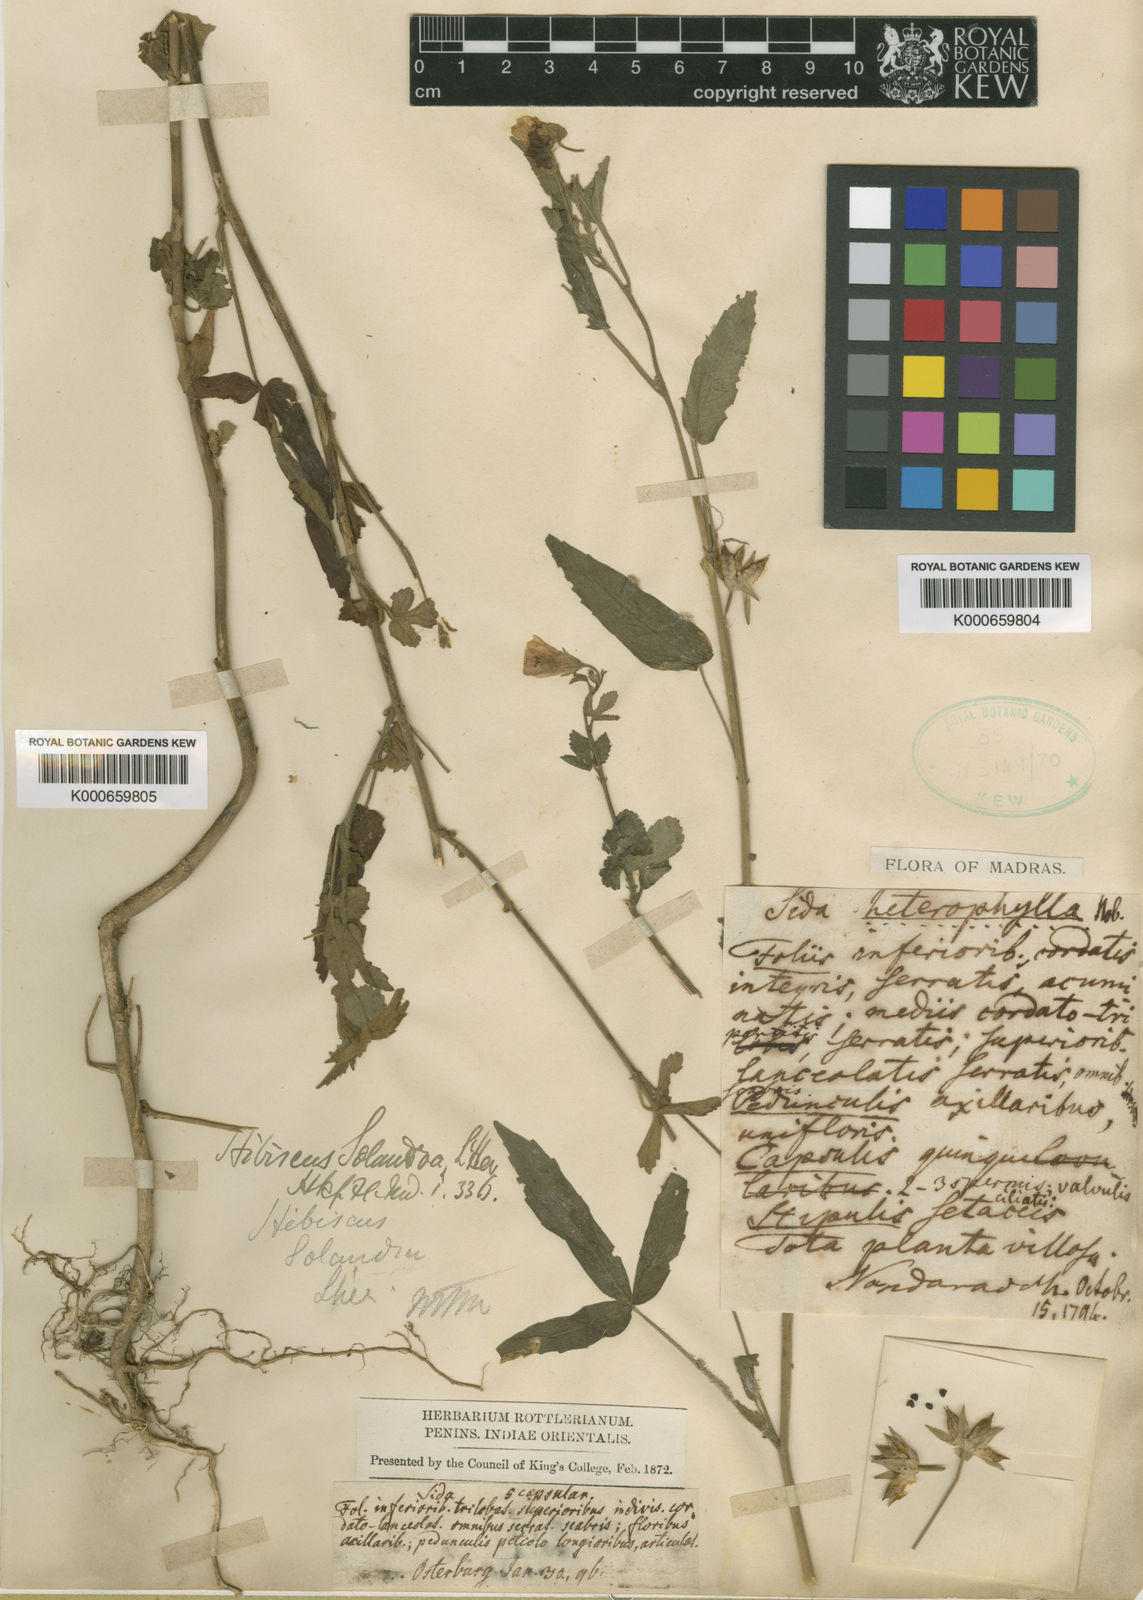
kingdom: Plantae
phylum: Tracheophyta
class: Magnoliopsida
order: Malvales
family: Malvaceae
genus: Hibiscus
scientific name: Hibiscus lobatus
